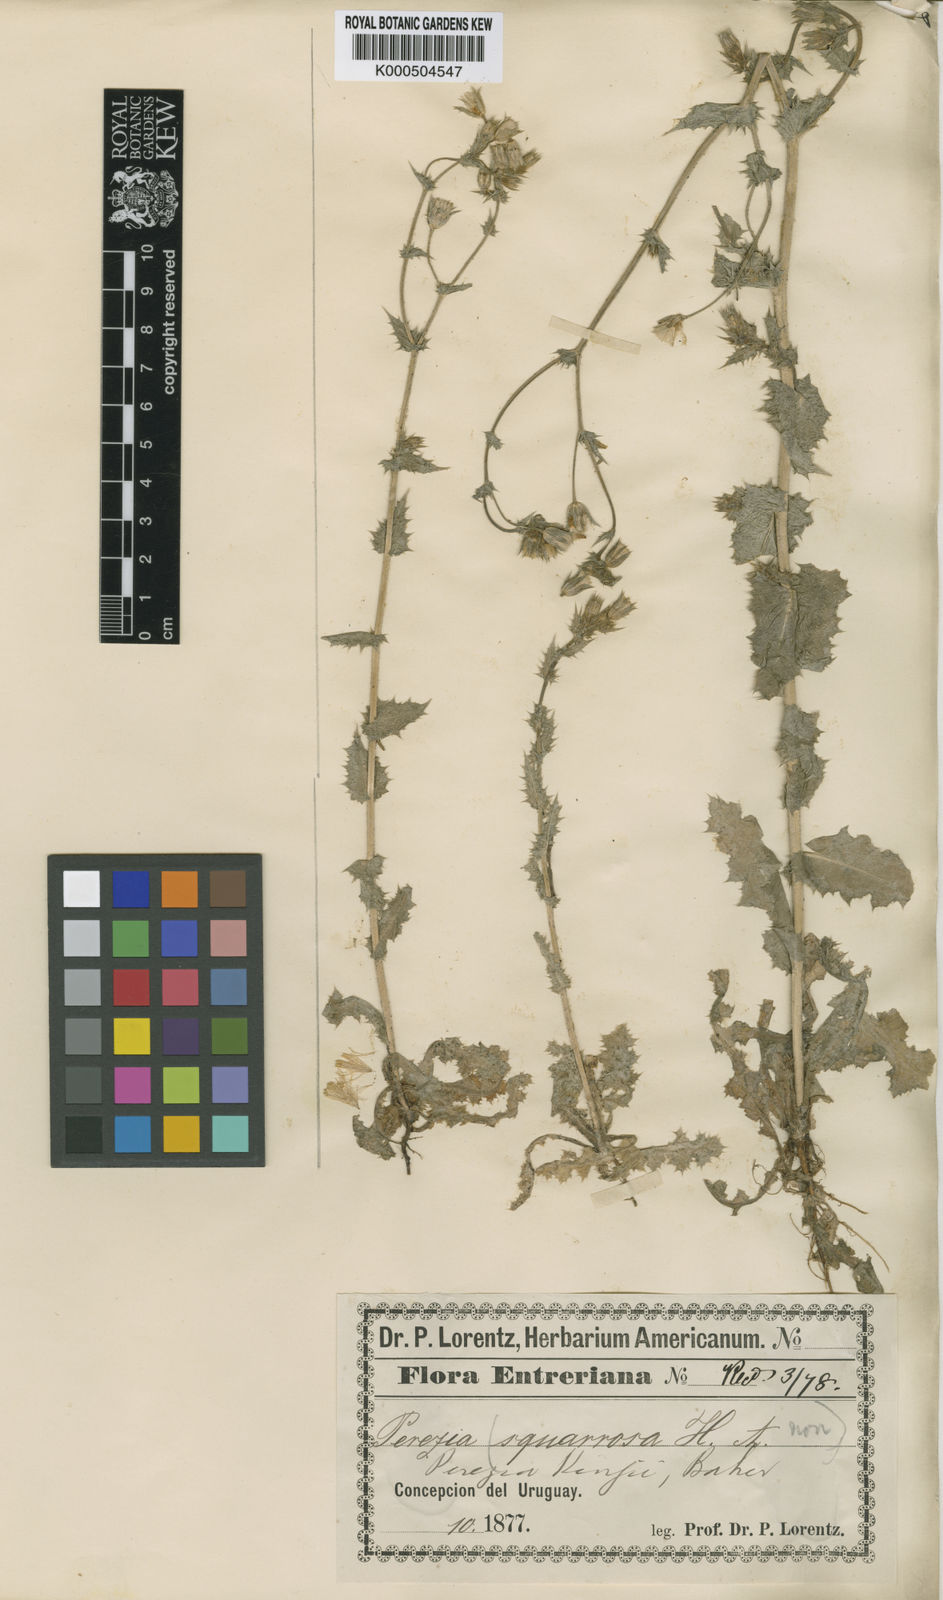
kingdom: Plantae
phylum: Tracheophyta
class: Magnoliopsida
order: Asterales
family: Asteraceae
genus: Perezia
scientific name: Perezia kingii
